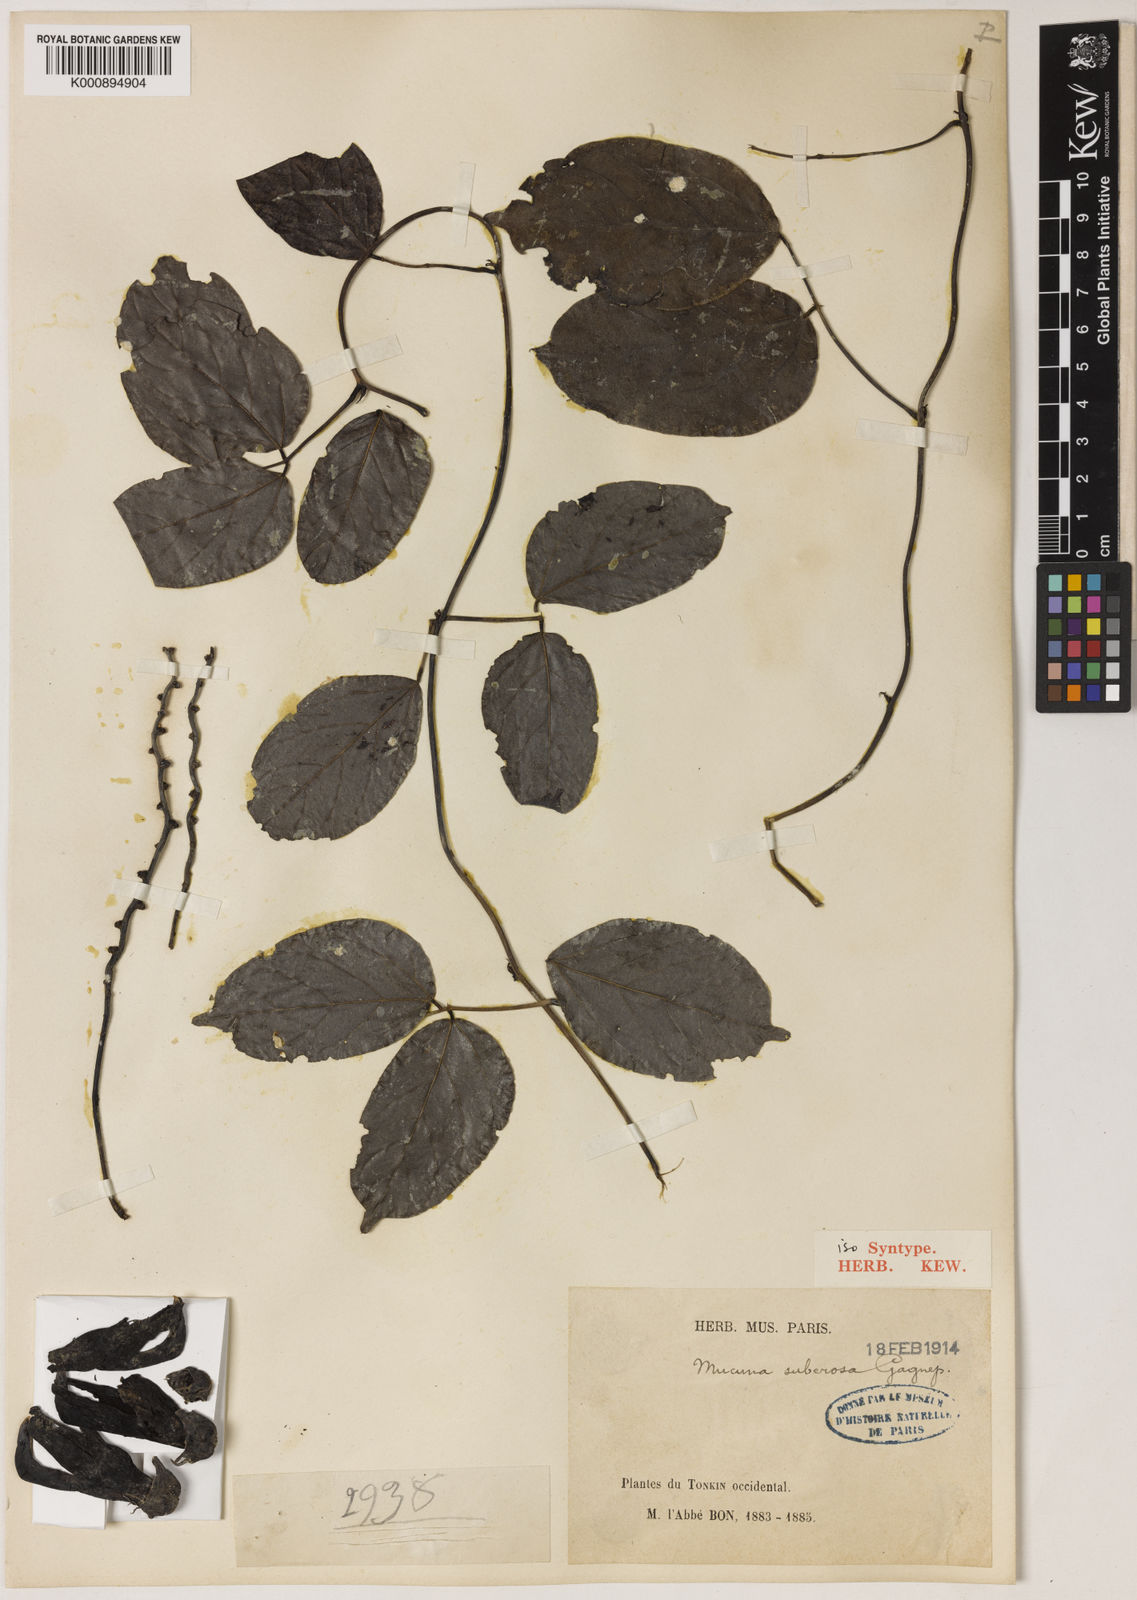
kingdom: Plantae
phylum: Tracheophyta
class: Magnoliopsida
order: Fabales
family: Fabaceae
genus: Mucuna
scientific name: Mucuna hainanensis
